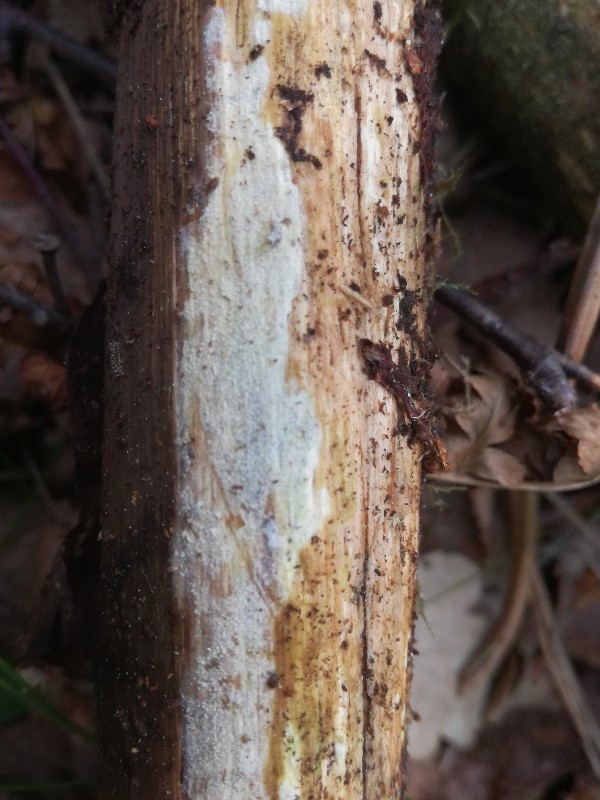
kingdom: Fungi
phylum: Basidiomycota
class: Agaricomycetes
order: Hymenochaetales
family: Rickenellaceae
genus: Resinicium
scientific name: Resinicium bicolor
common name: almindelig vokstand
